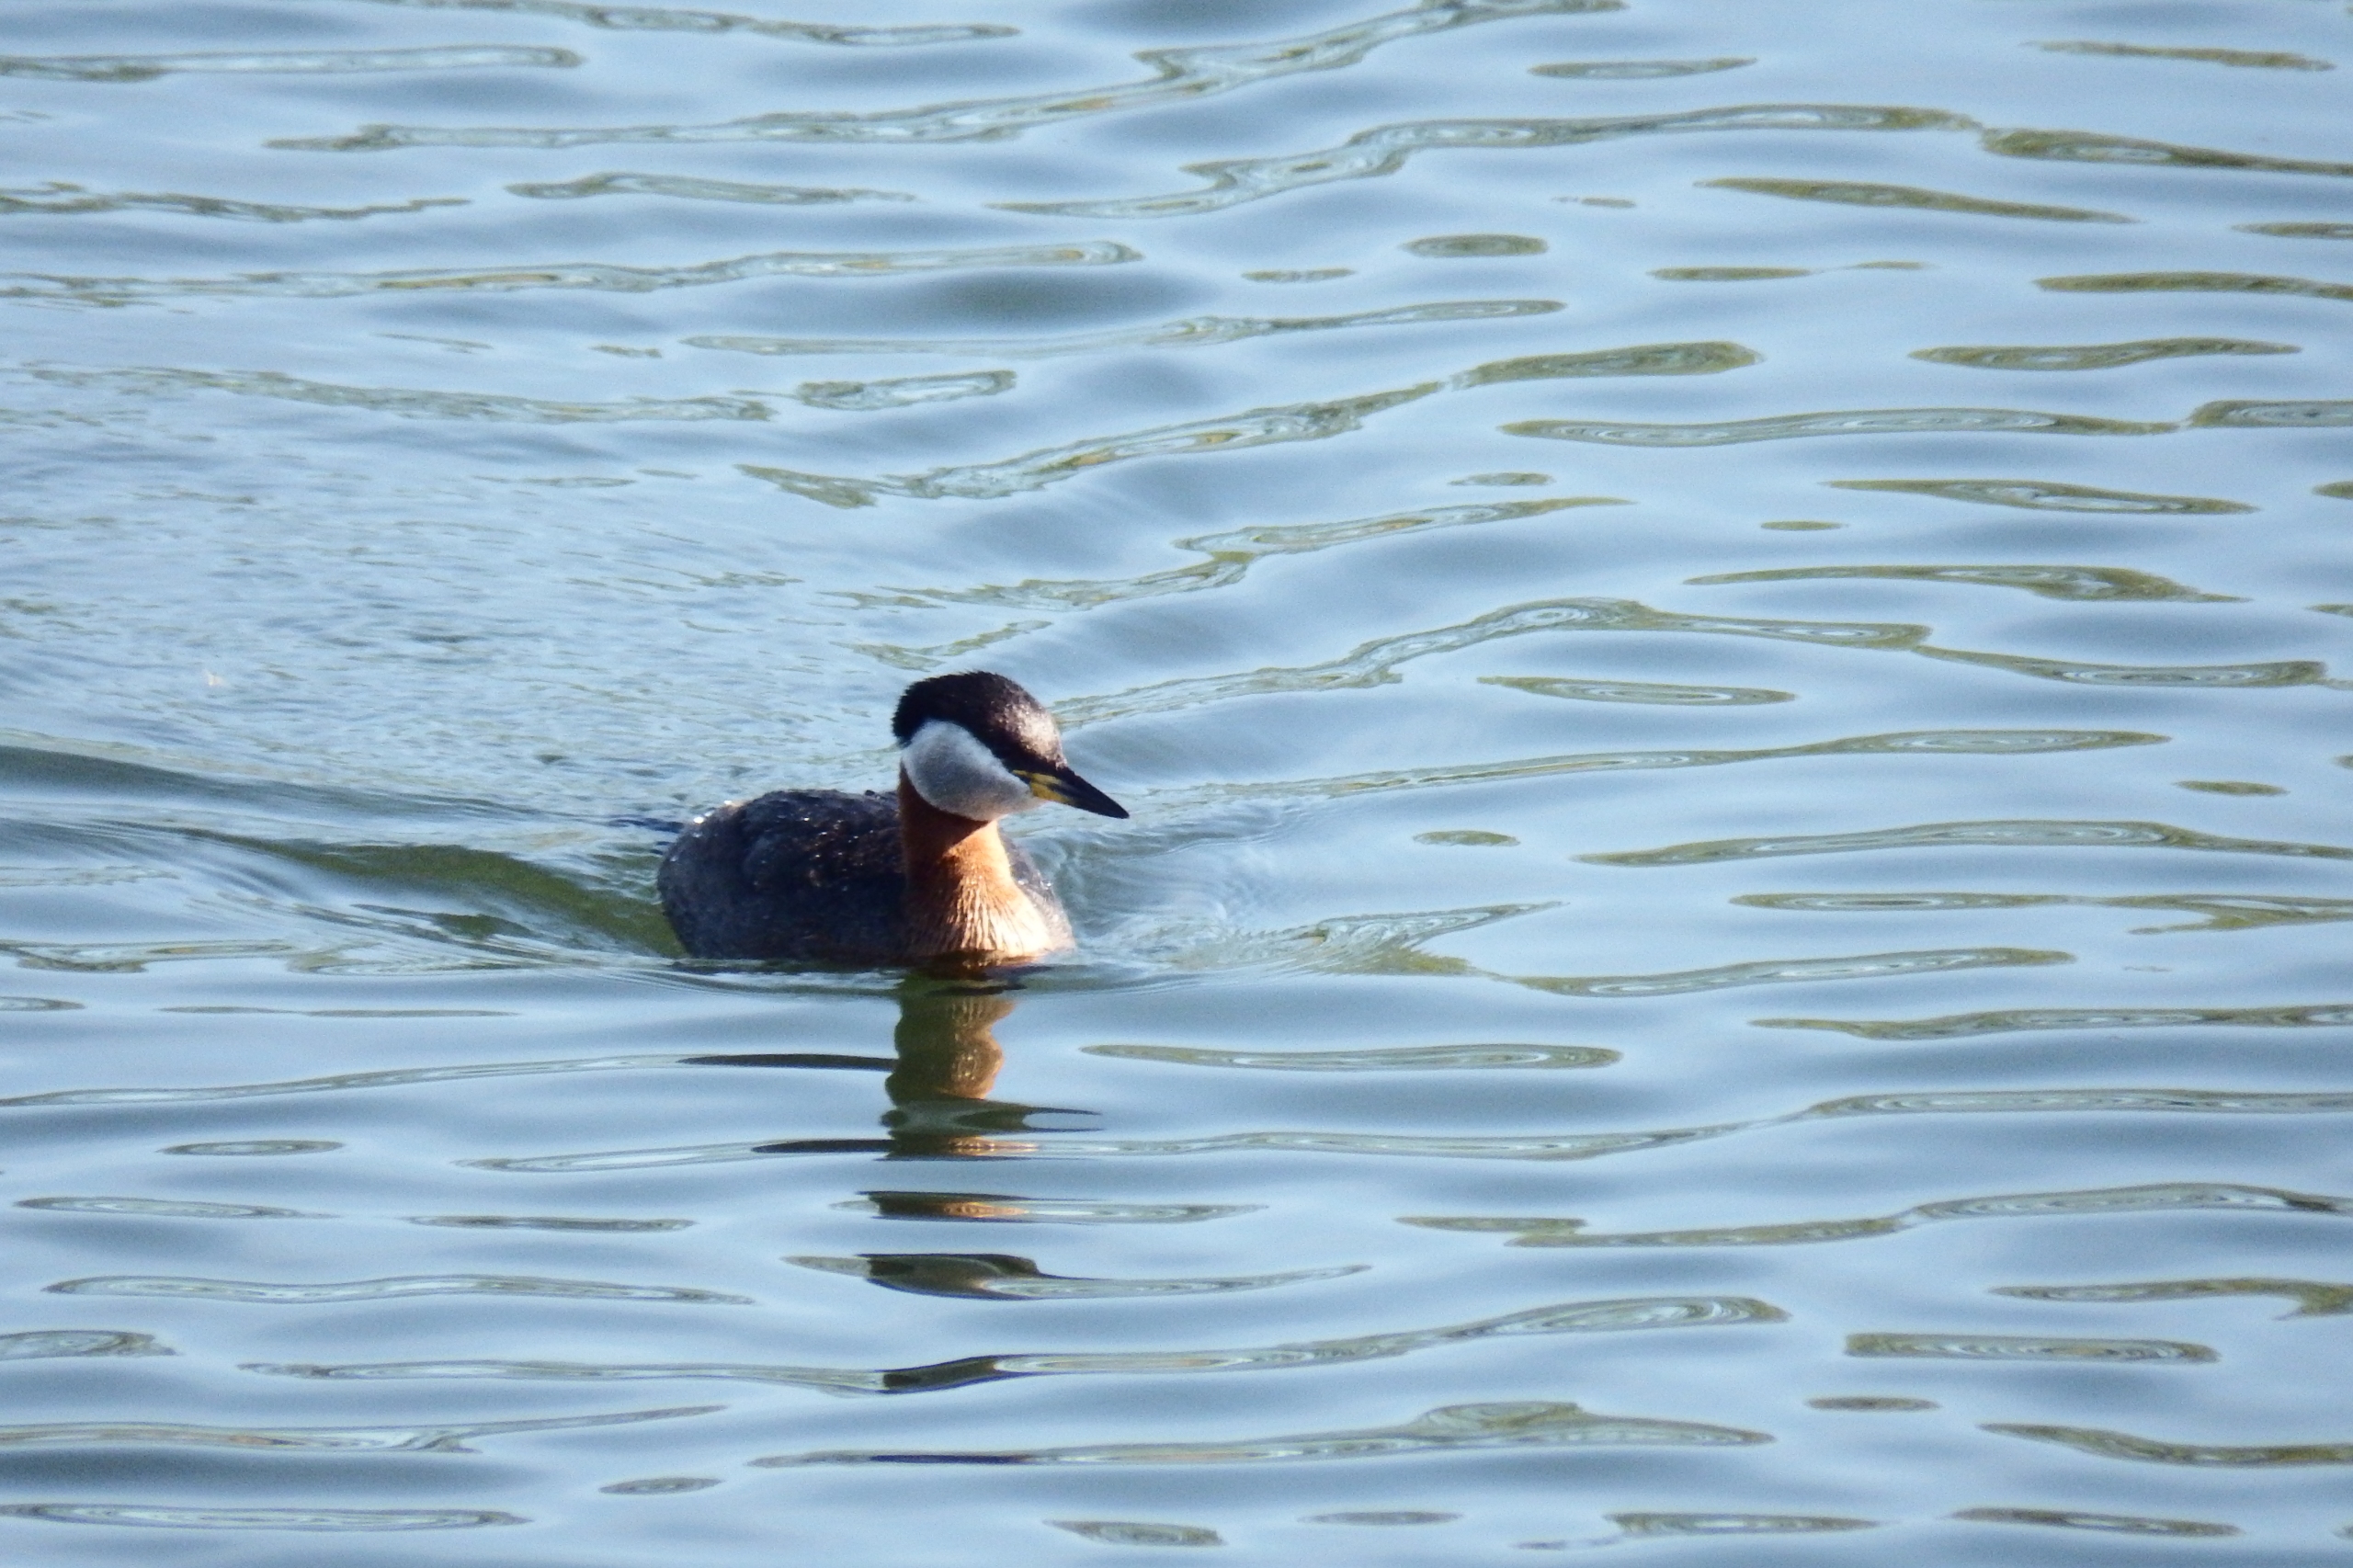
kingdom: Animalia
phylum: Chordata
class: Aves
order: Podicipediformes
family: Podicipedidae
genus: Podiceps
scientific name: Podiceps grisegena
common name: Gråstrubet lappedykker
